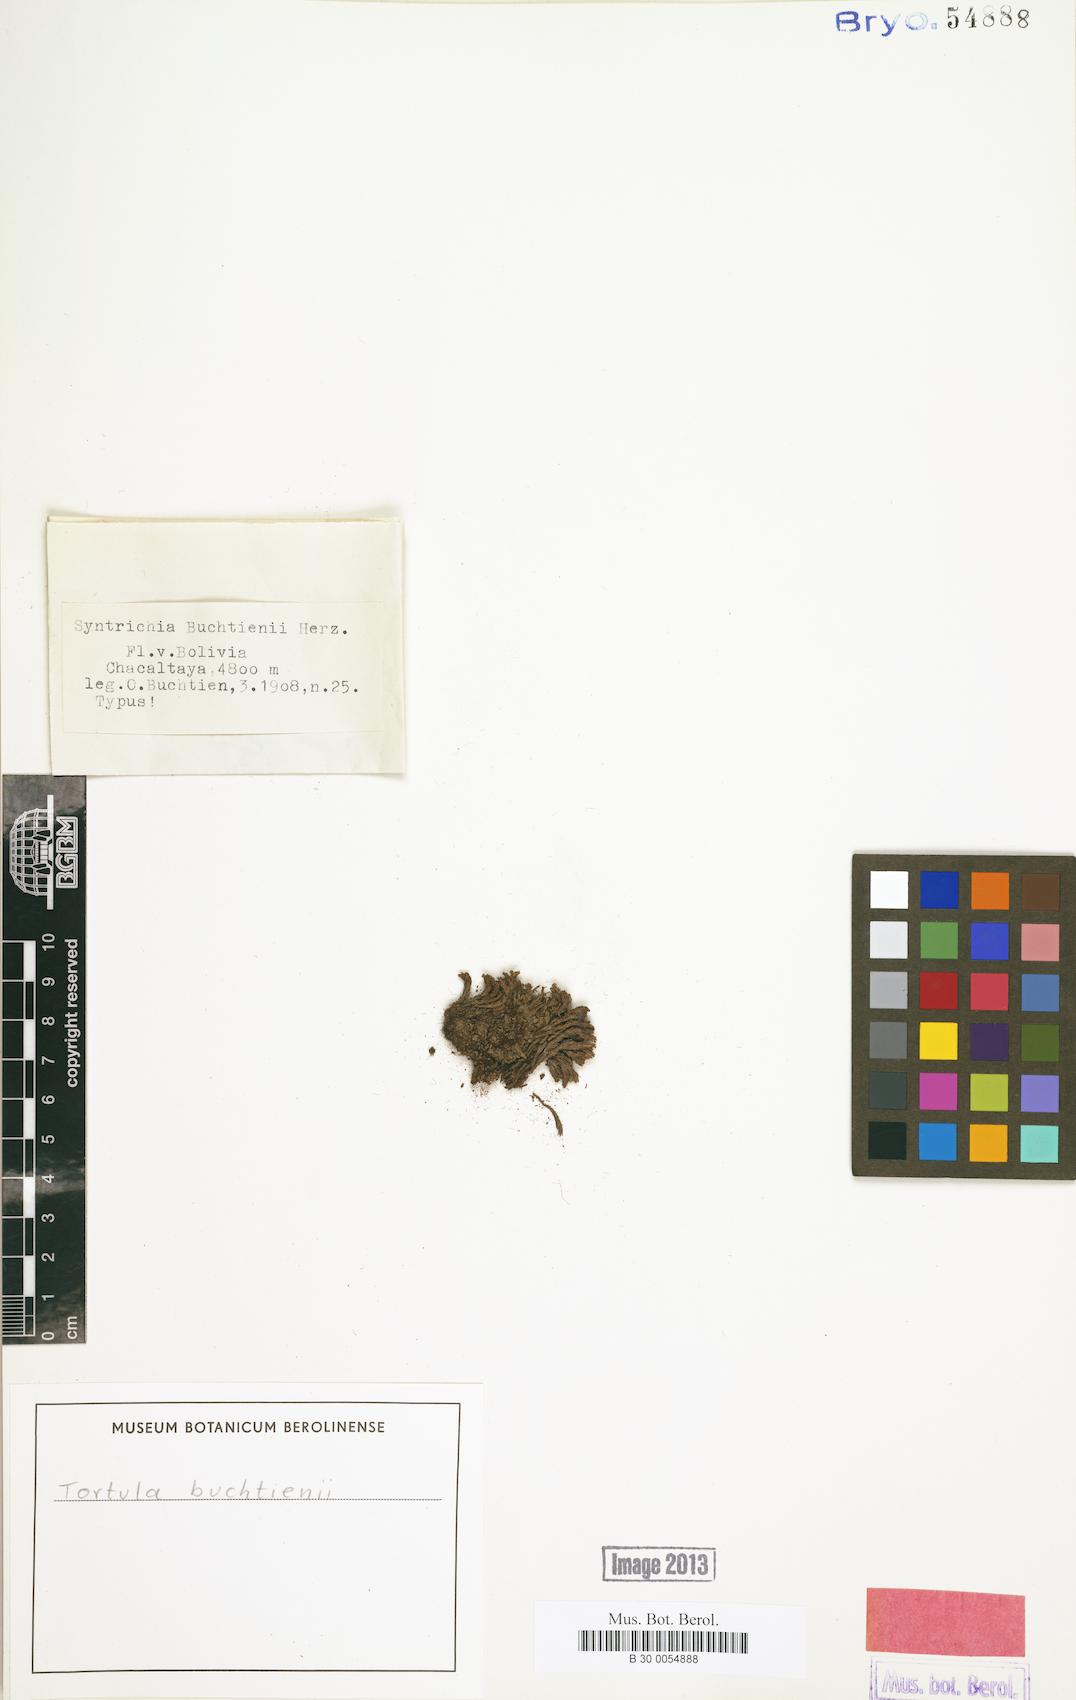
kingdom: Plantae
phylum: Bryophyta
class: Bryopsida
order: Pottiales
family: Pottiaceae
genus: Syntrichia
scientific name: Syntrichia buchtienii
